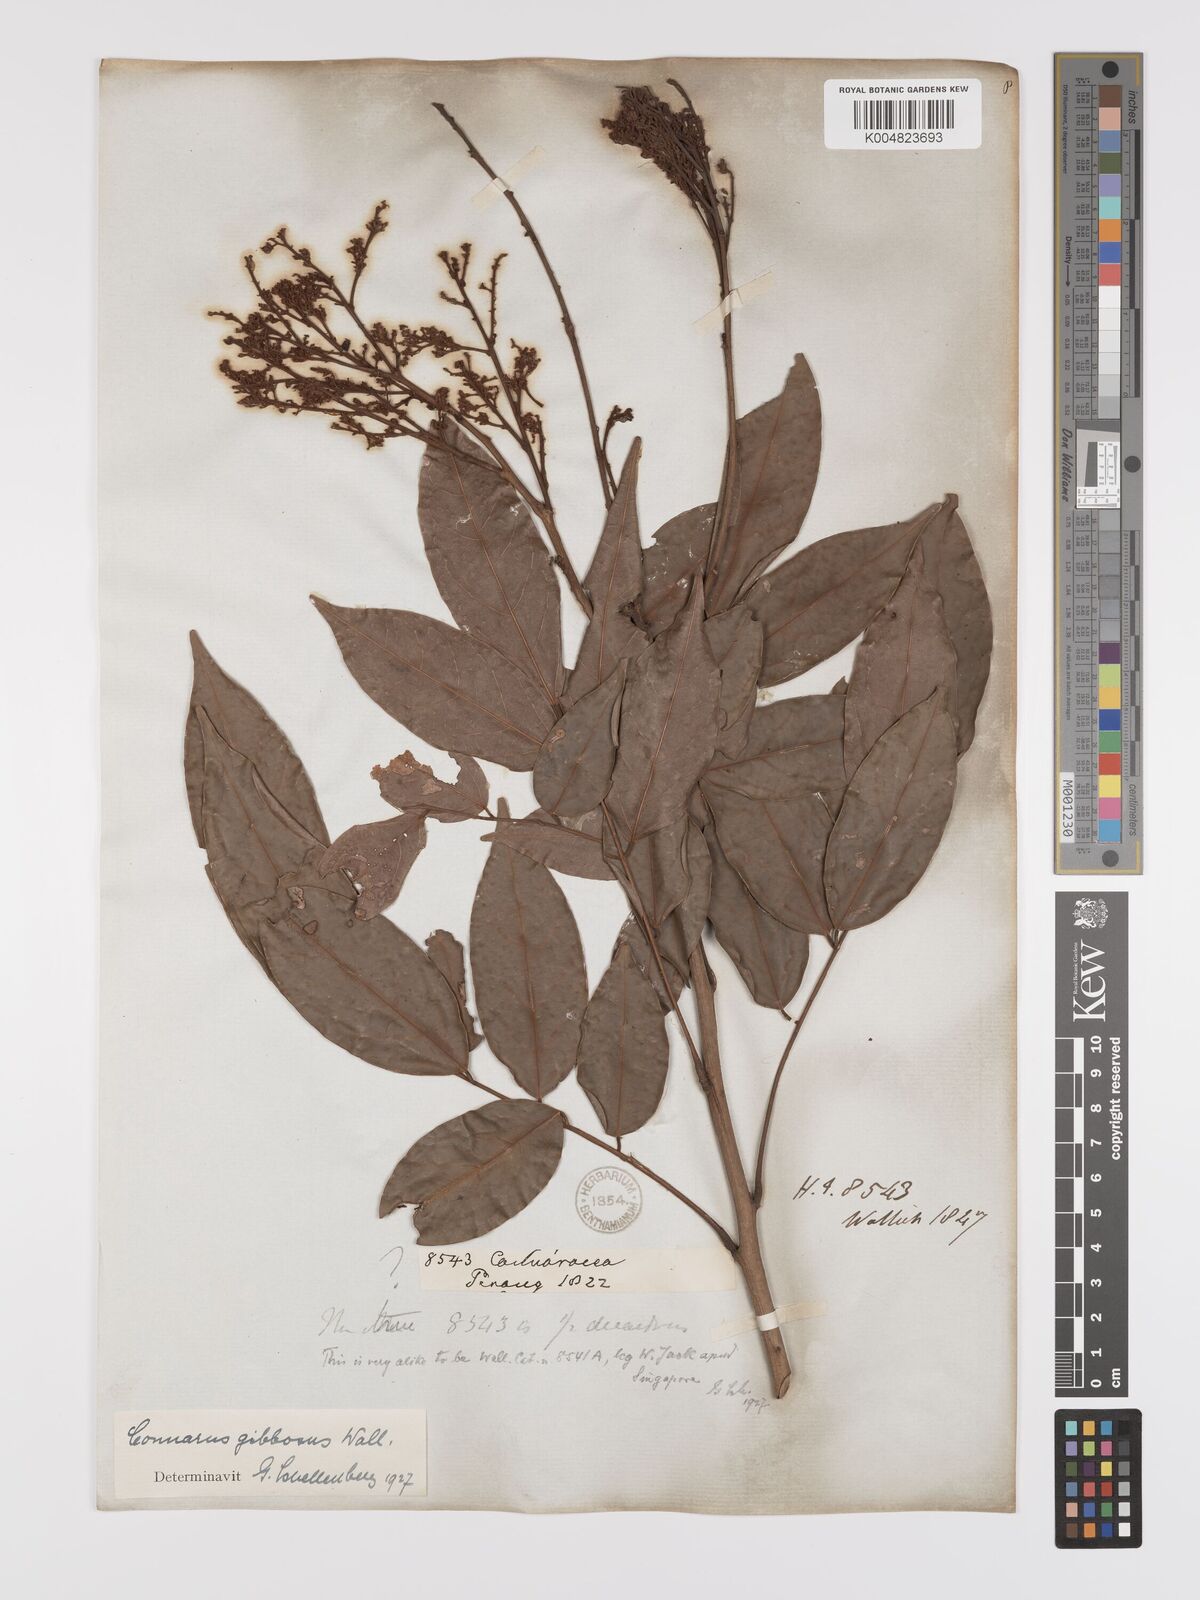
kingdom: Plantae
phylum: Tracheophyta
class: Magnoliopsida
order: Oxalidales
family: Connaraceae
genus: Connarus
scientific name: Connarus semidecandrus
